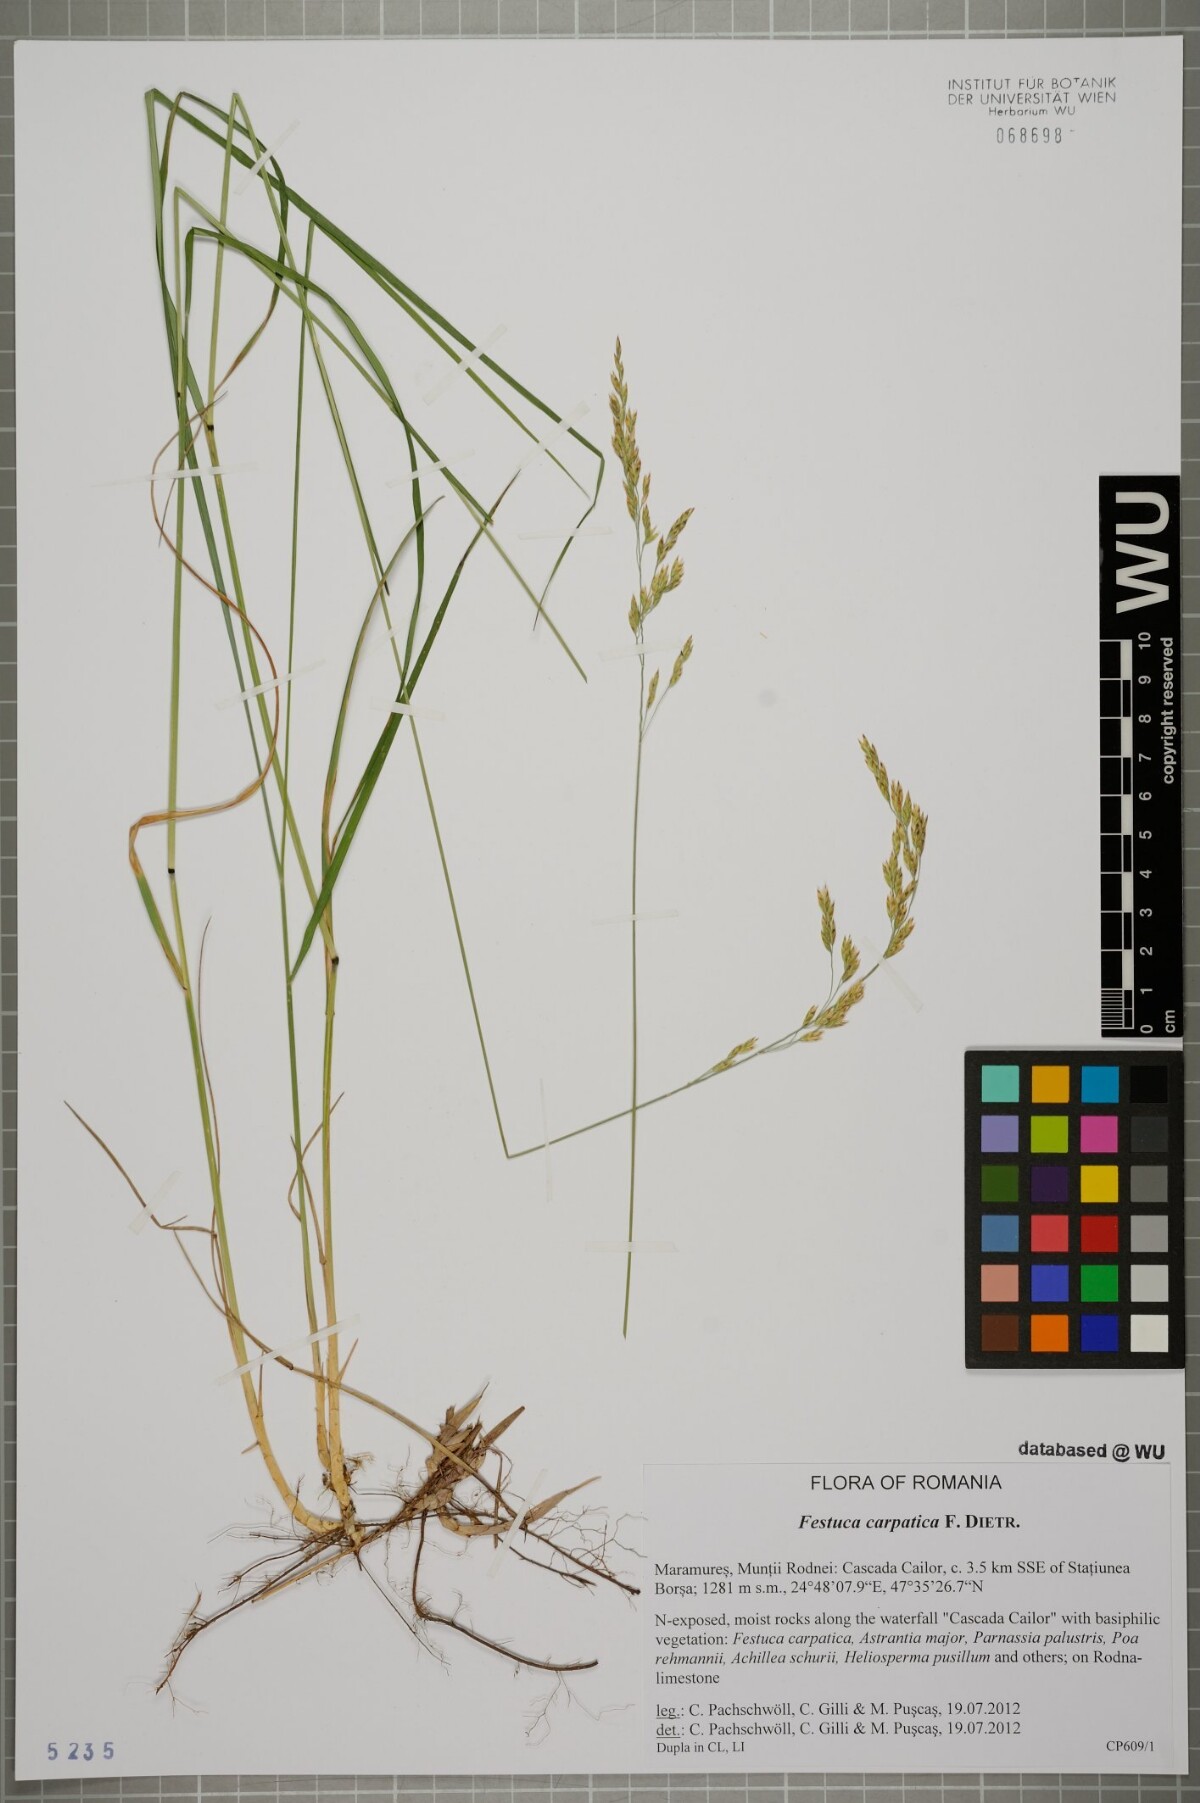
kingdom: Plantae
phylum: Tracheophyta
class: Liliopsida
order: Poales
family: Poaceae
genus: Festuca
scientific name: Festuca carpatica
